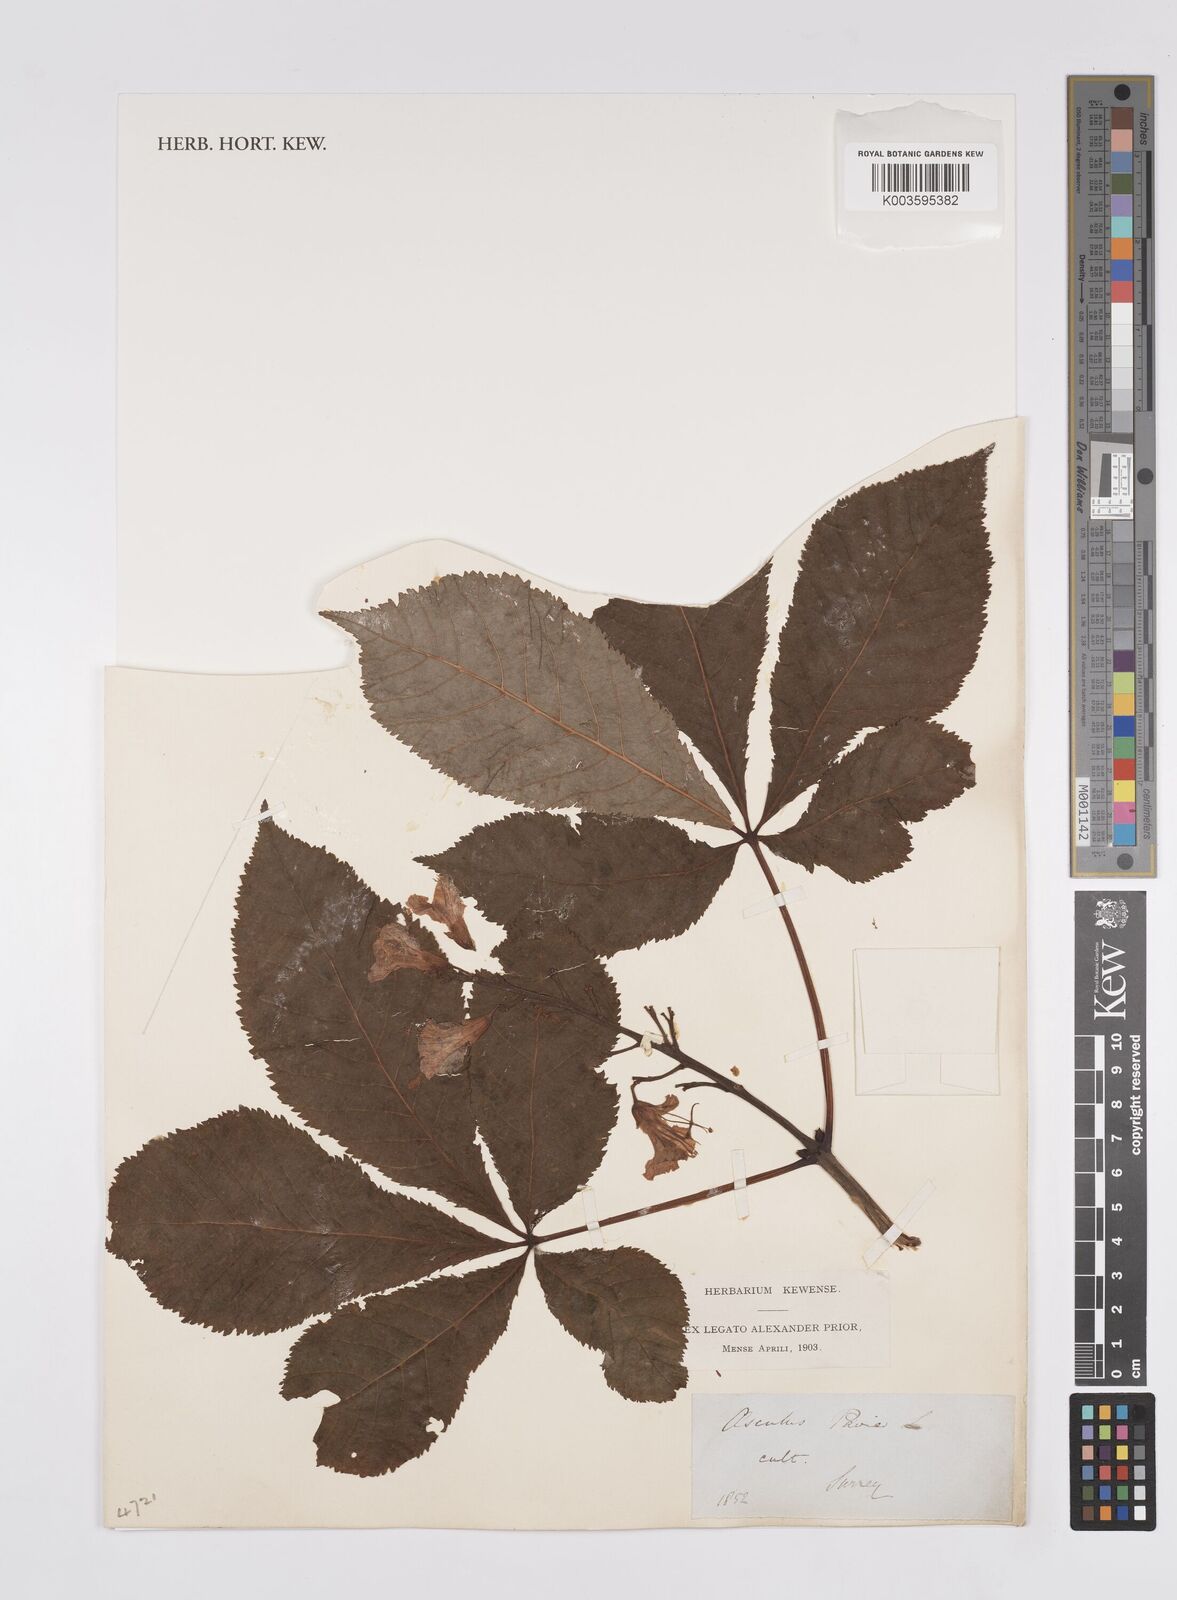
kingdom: Plantae
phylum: Tracheophyta
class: Magnoliopsida
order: Sapindales
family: Sapindaceae
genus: Aesculus
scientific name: Aesculus carnea
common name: Red horse-chestnut
